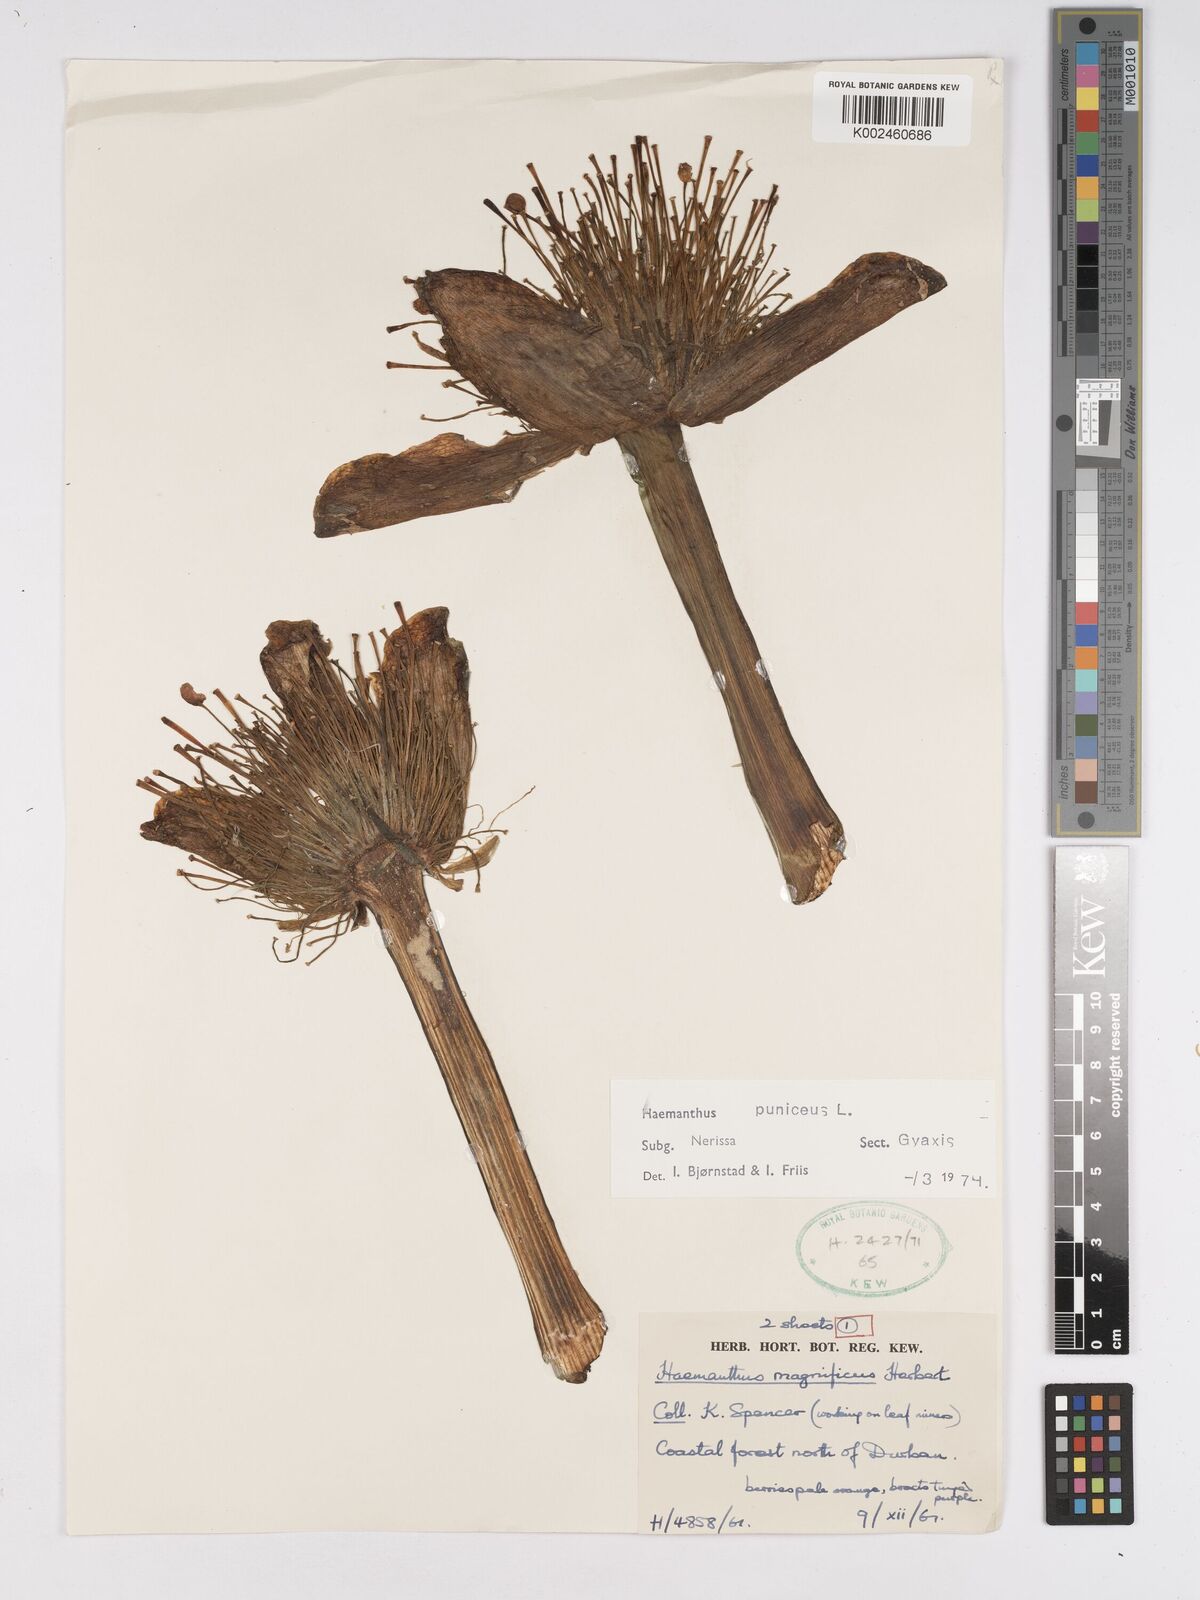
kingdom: Plantae
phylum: Tracheophyta
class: Liliopsida
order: Asparagales
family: Amaryllidaceae
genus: Scadoxus
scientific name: Scadoxus puniceus
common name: Royal-paintbrush
